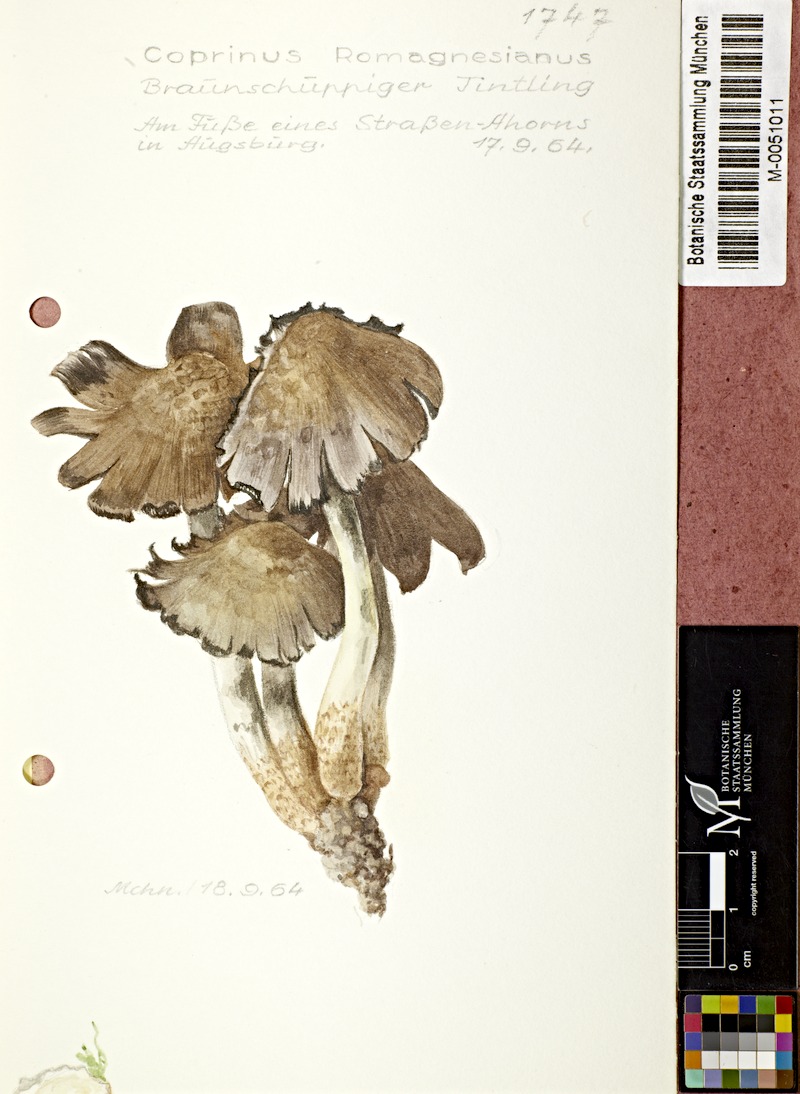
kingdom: Fungi
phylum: Basidiomycota
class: Agaricomycetes
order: Agaricales
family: Psathyrellaceae
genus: Coprinopsis
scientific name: Coprinopsis romagnesiana
